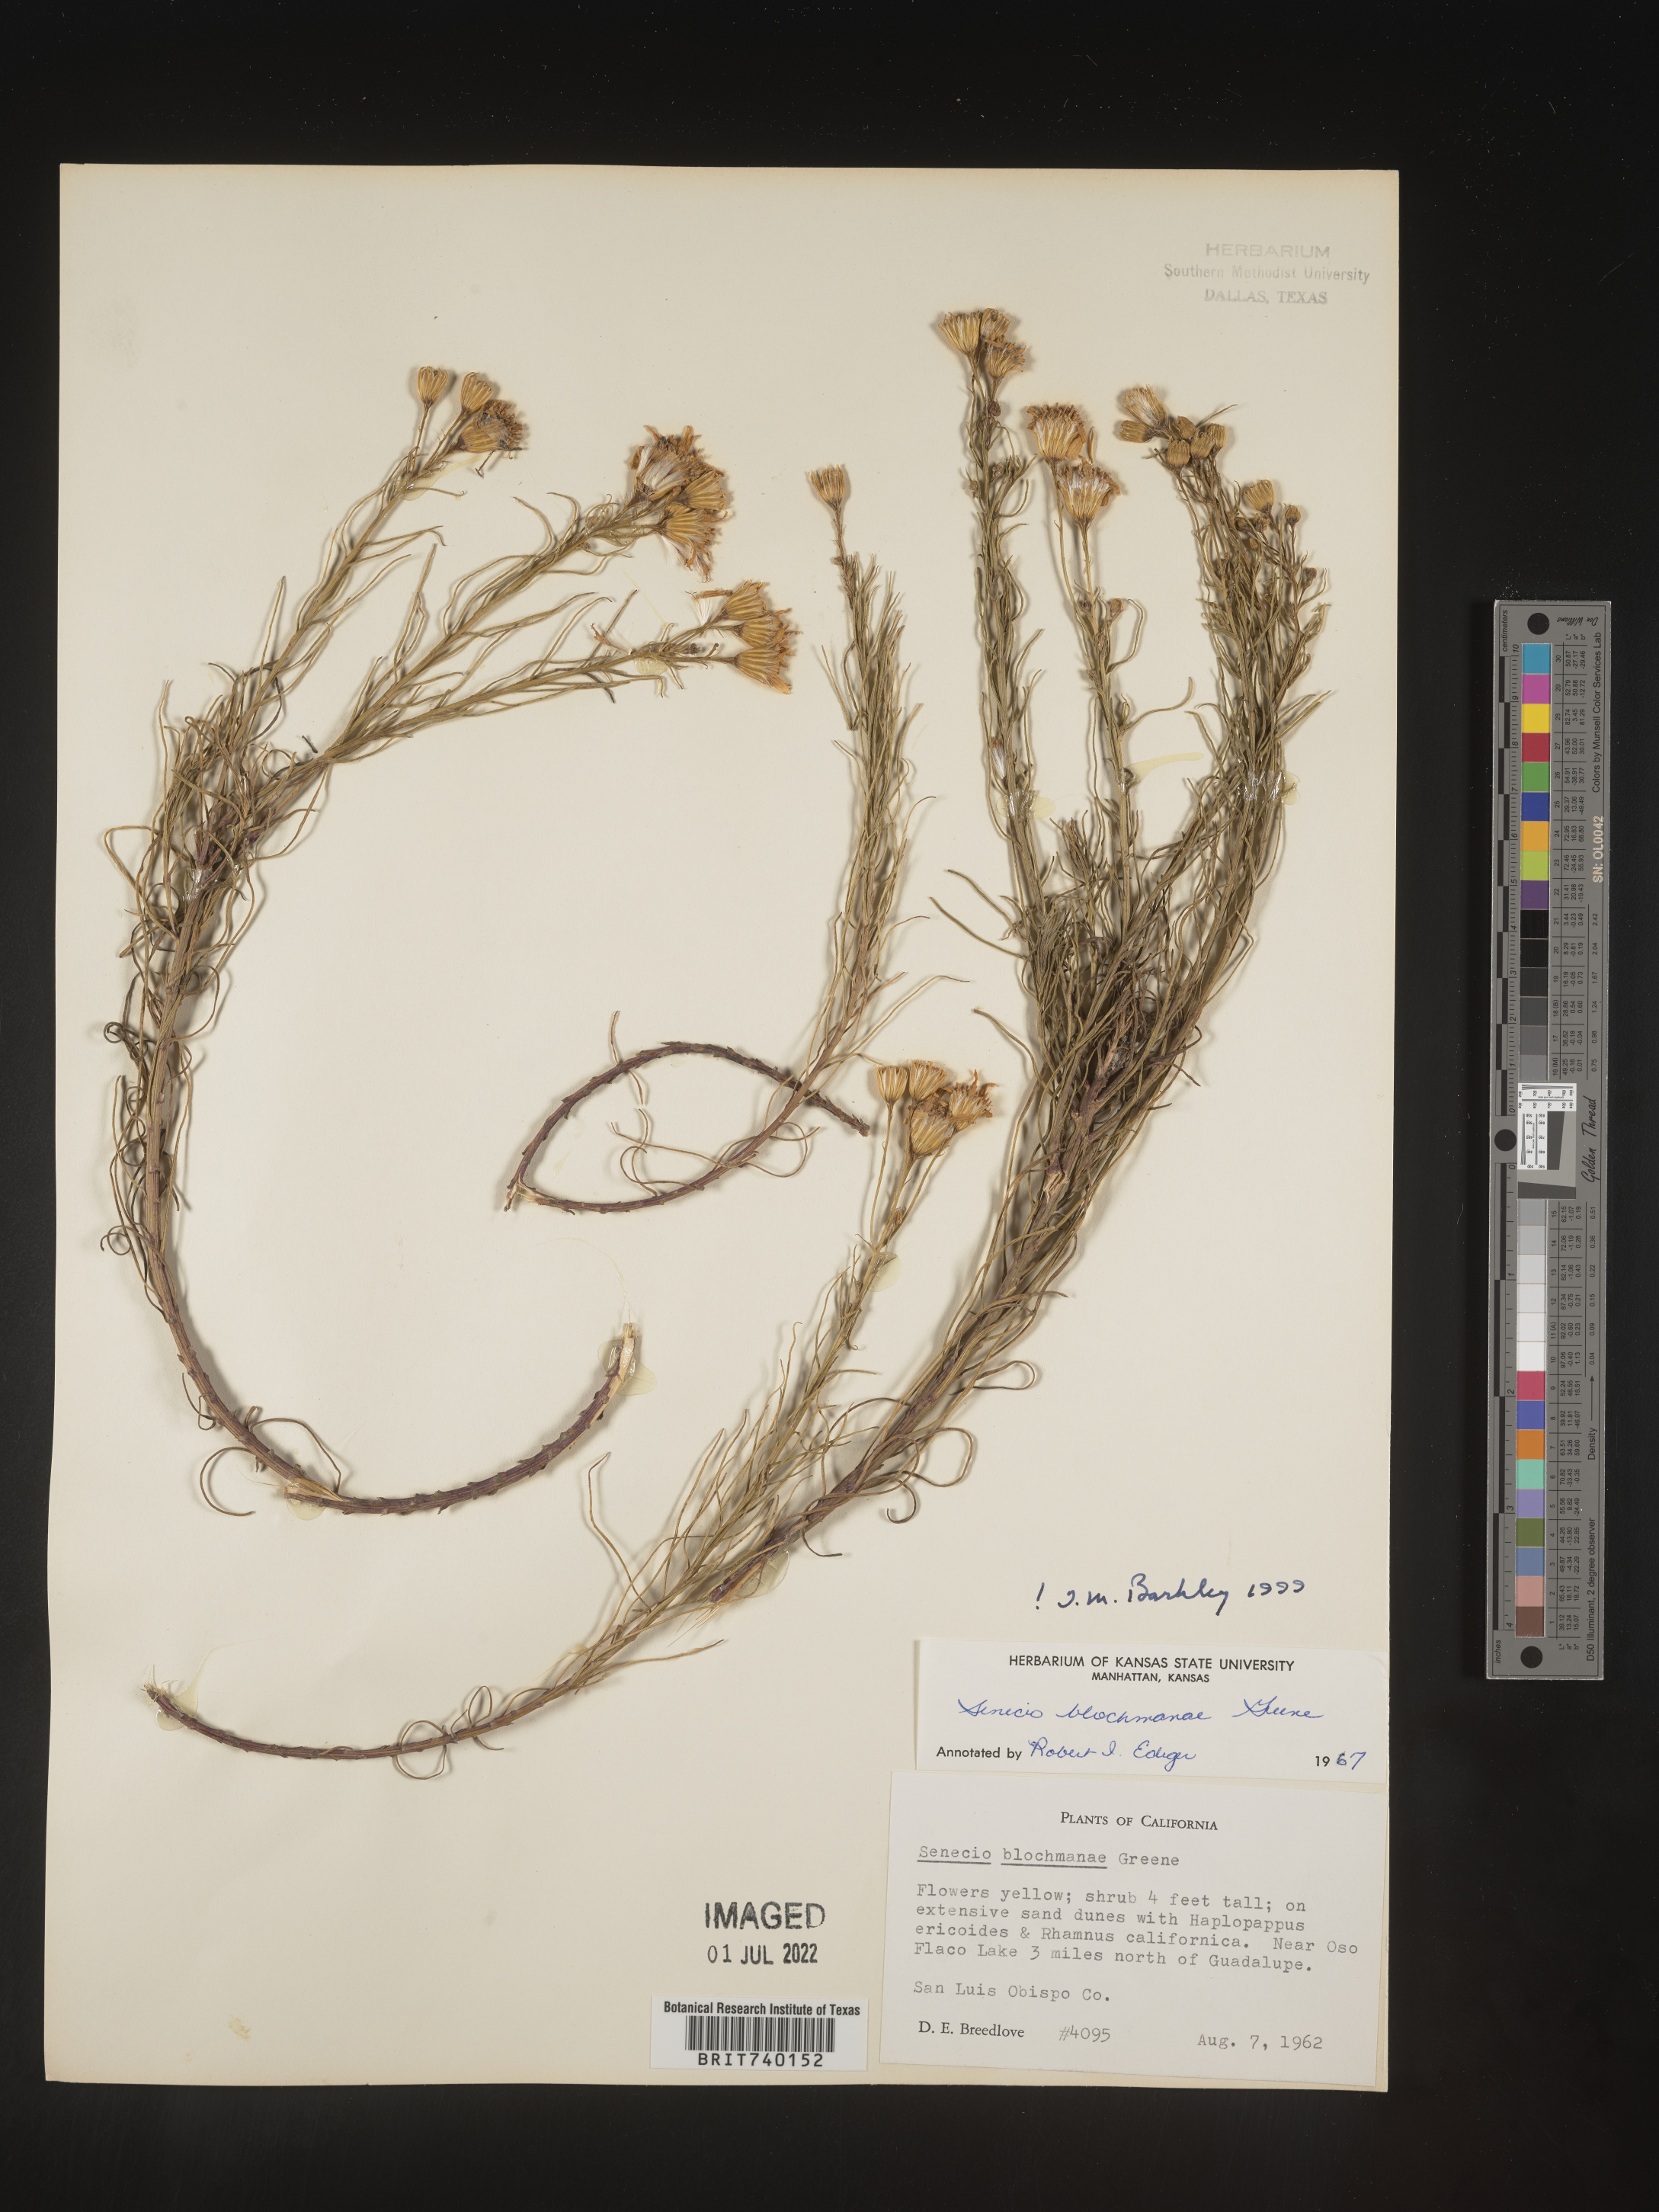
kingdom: Plantae
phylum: Tracheophyta
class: Magnoliopsida
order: Asterales
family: Asteraceae
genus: Senecio
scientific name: Senecio blochmanae
